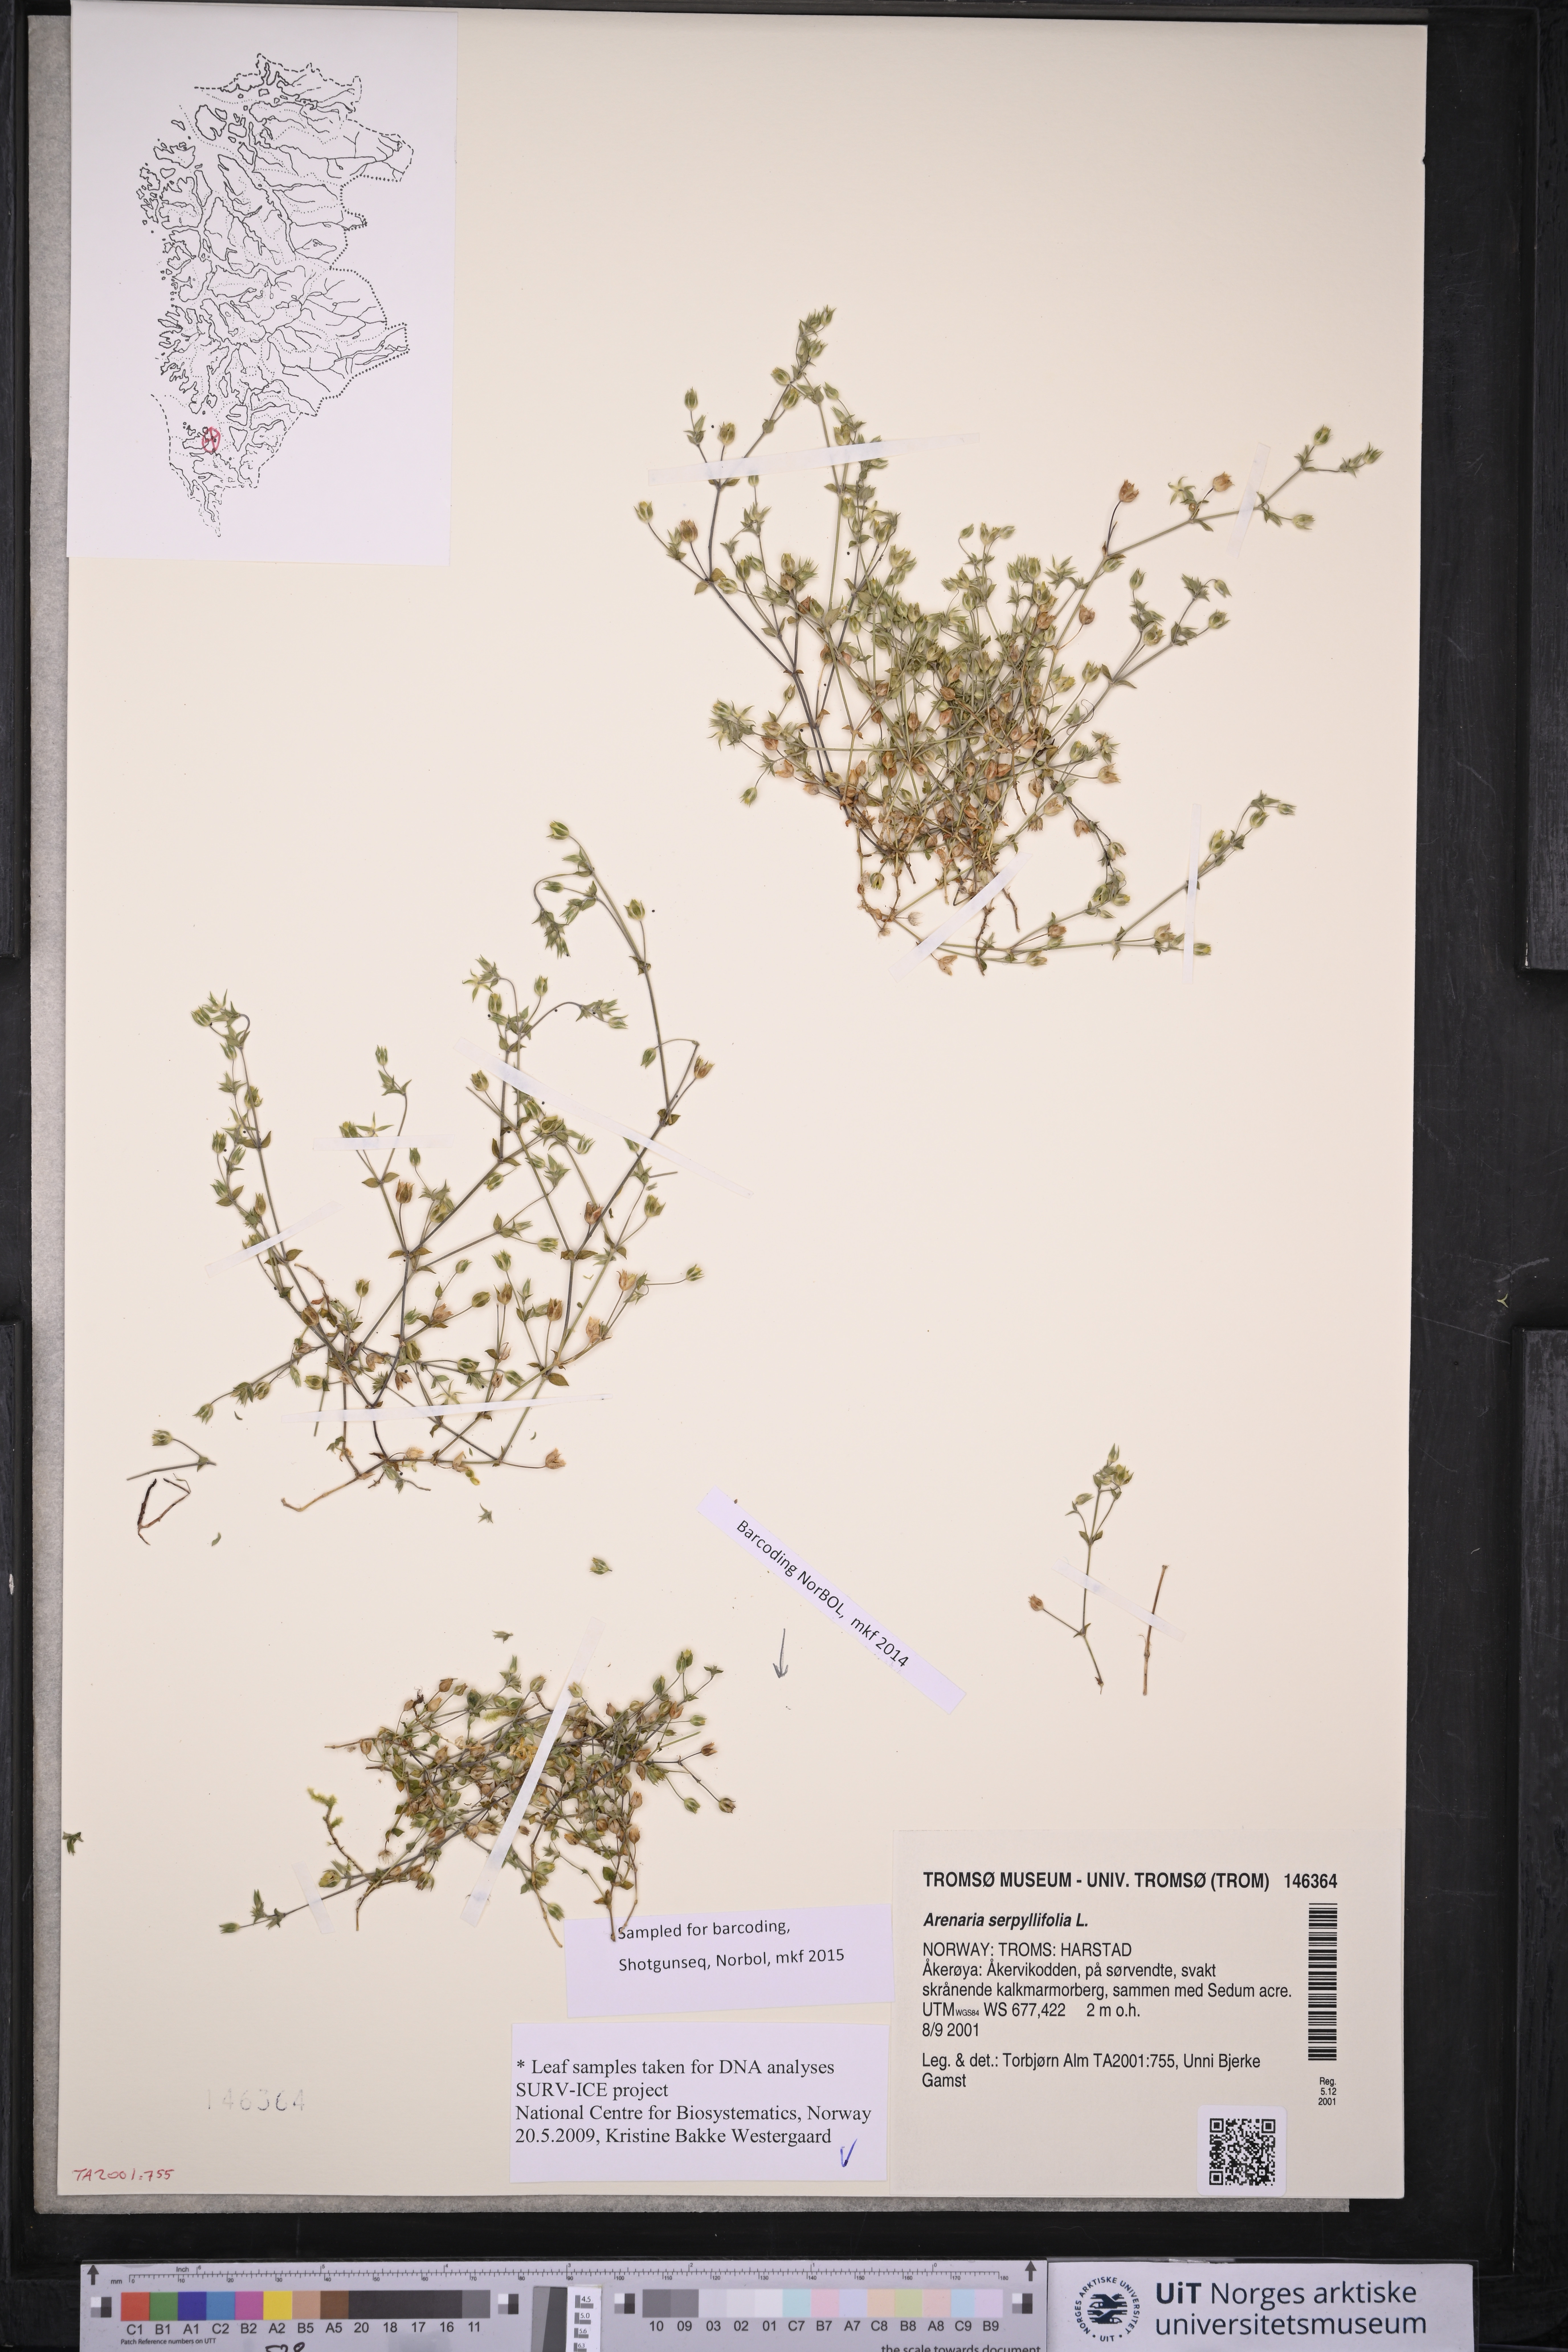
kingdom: Plantae
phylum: Tracheophyta
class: Magnoliopsida
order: Caryophyllales
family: Caryophyllaceae
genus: Arenaria
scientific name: Arenaria serpyllifolia
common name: Thyme-leaved sandwort
